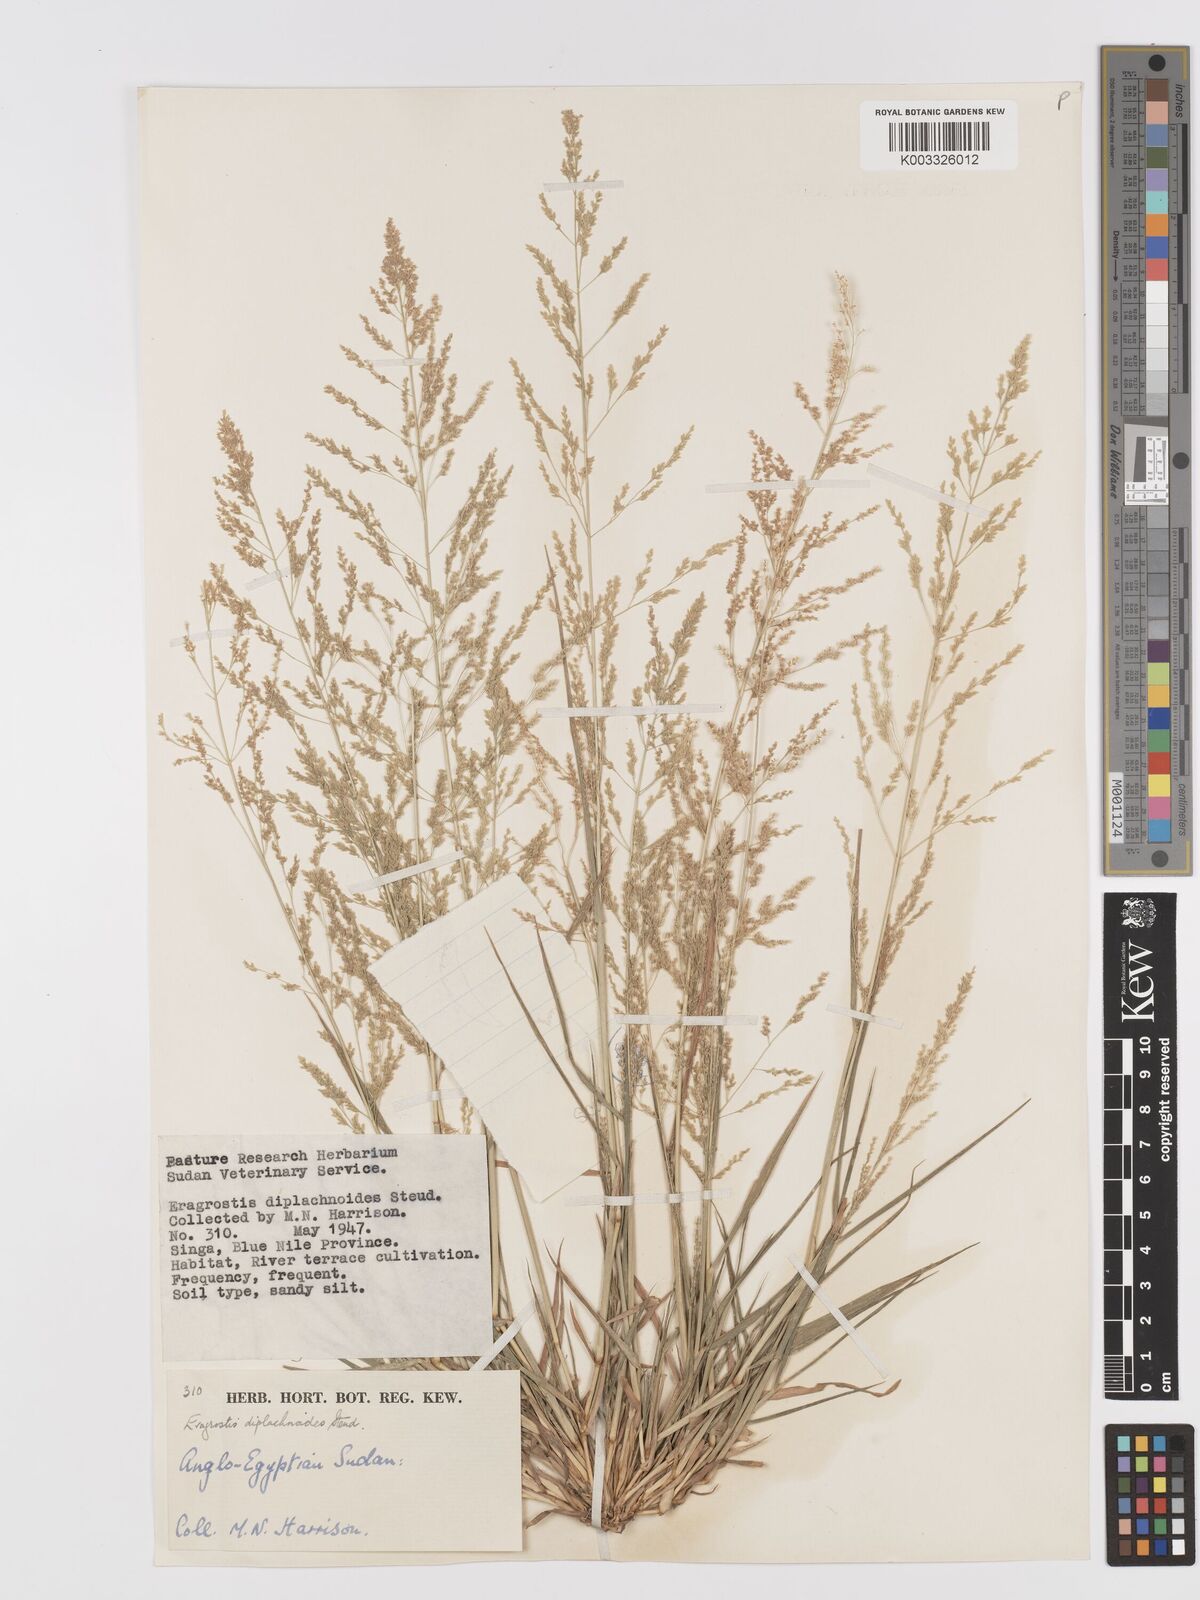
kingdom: Plantae
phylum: Tracheophyta
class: Liliopsida
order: Poales
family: Poaceae
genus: Eragrostis
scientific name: Eragrostis japonica
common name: Pond lovegrass
